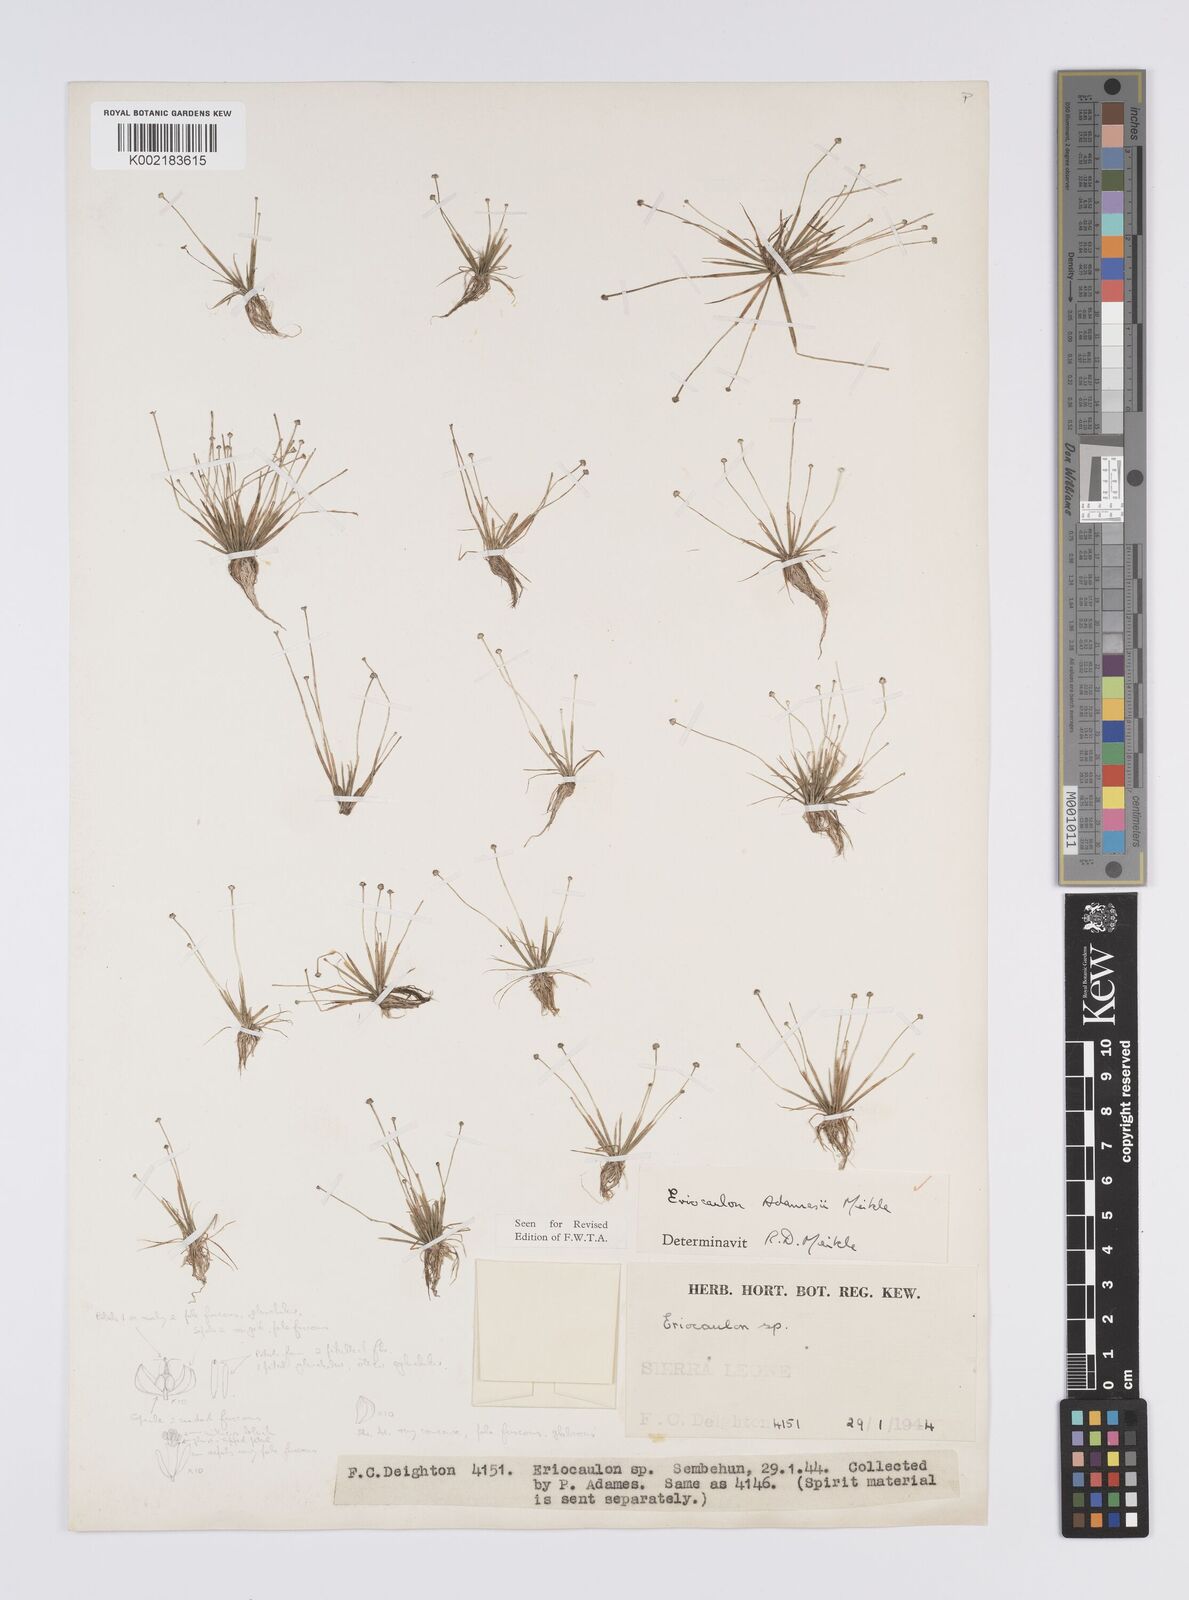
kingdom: Plantae
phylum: Tracheophyta
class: Liliopsida
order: Poales
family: Eriocaulaceae
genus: Eriocaulon
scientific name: Eriocaulon adamesii
